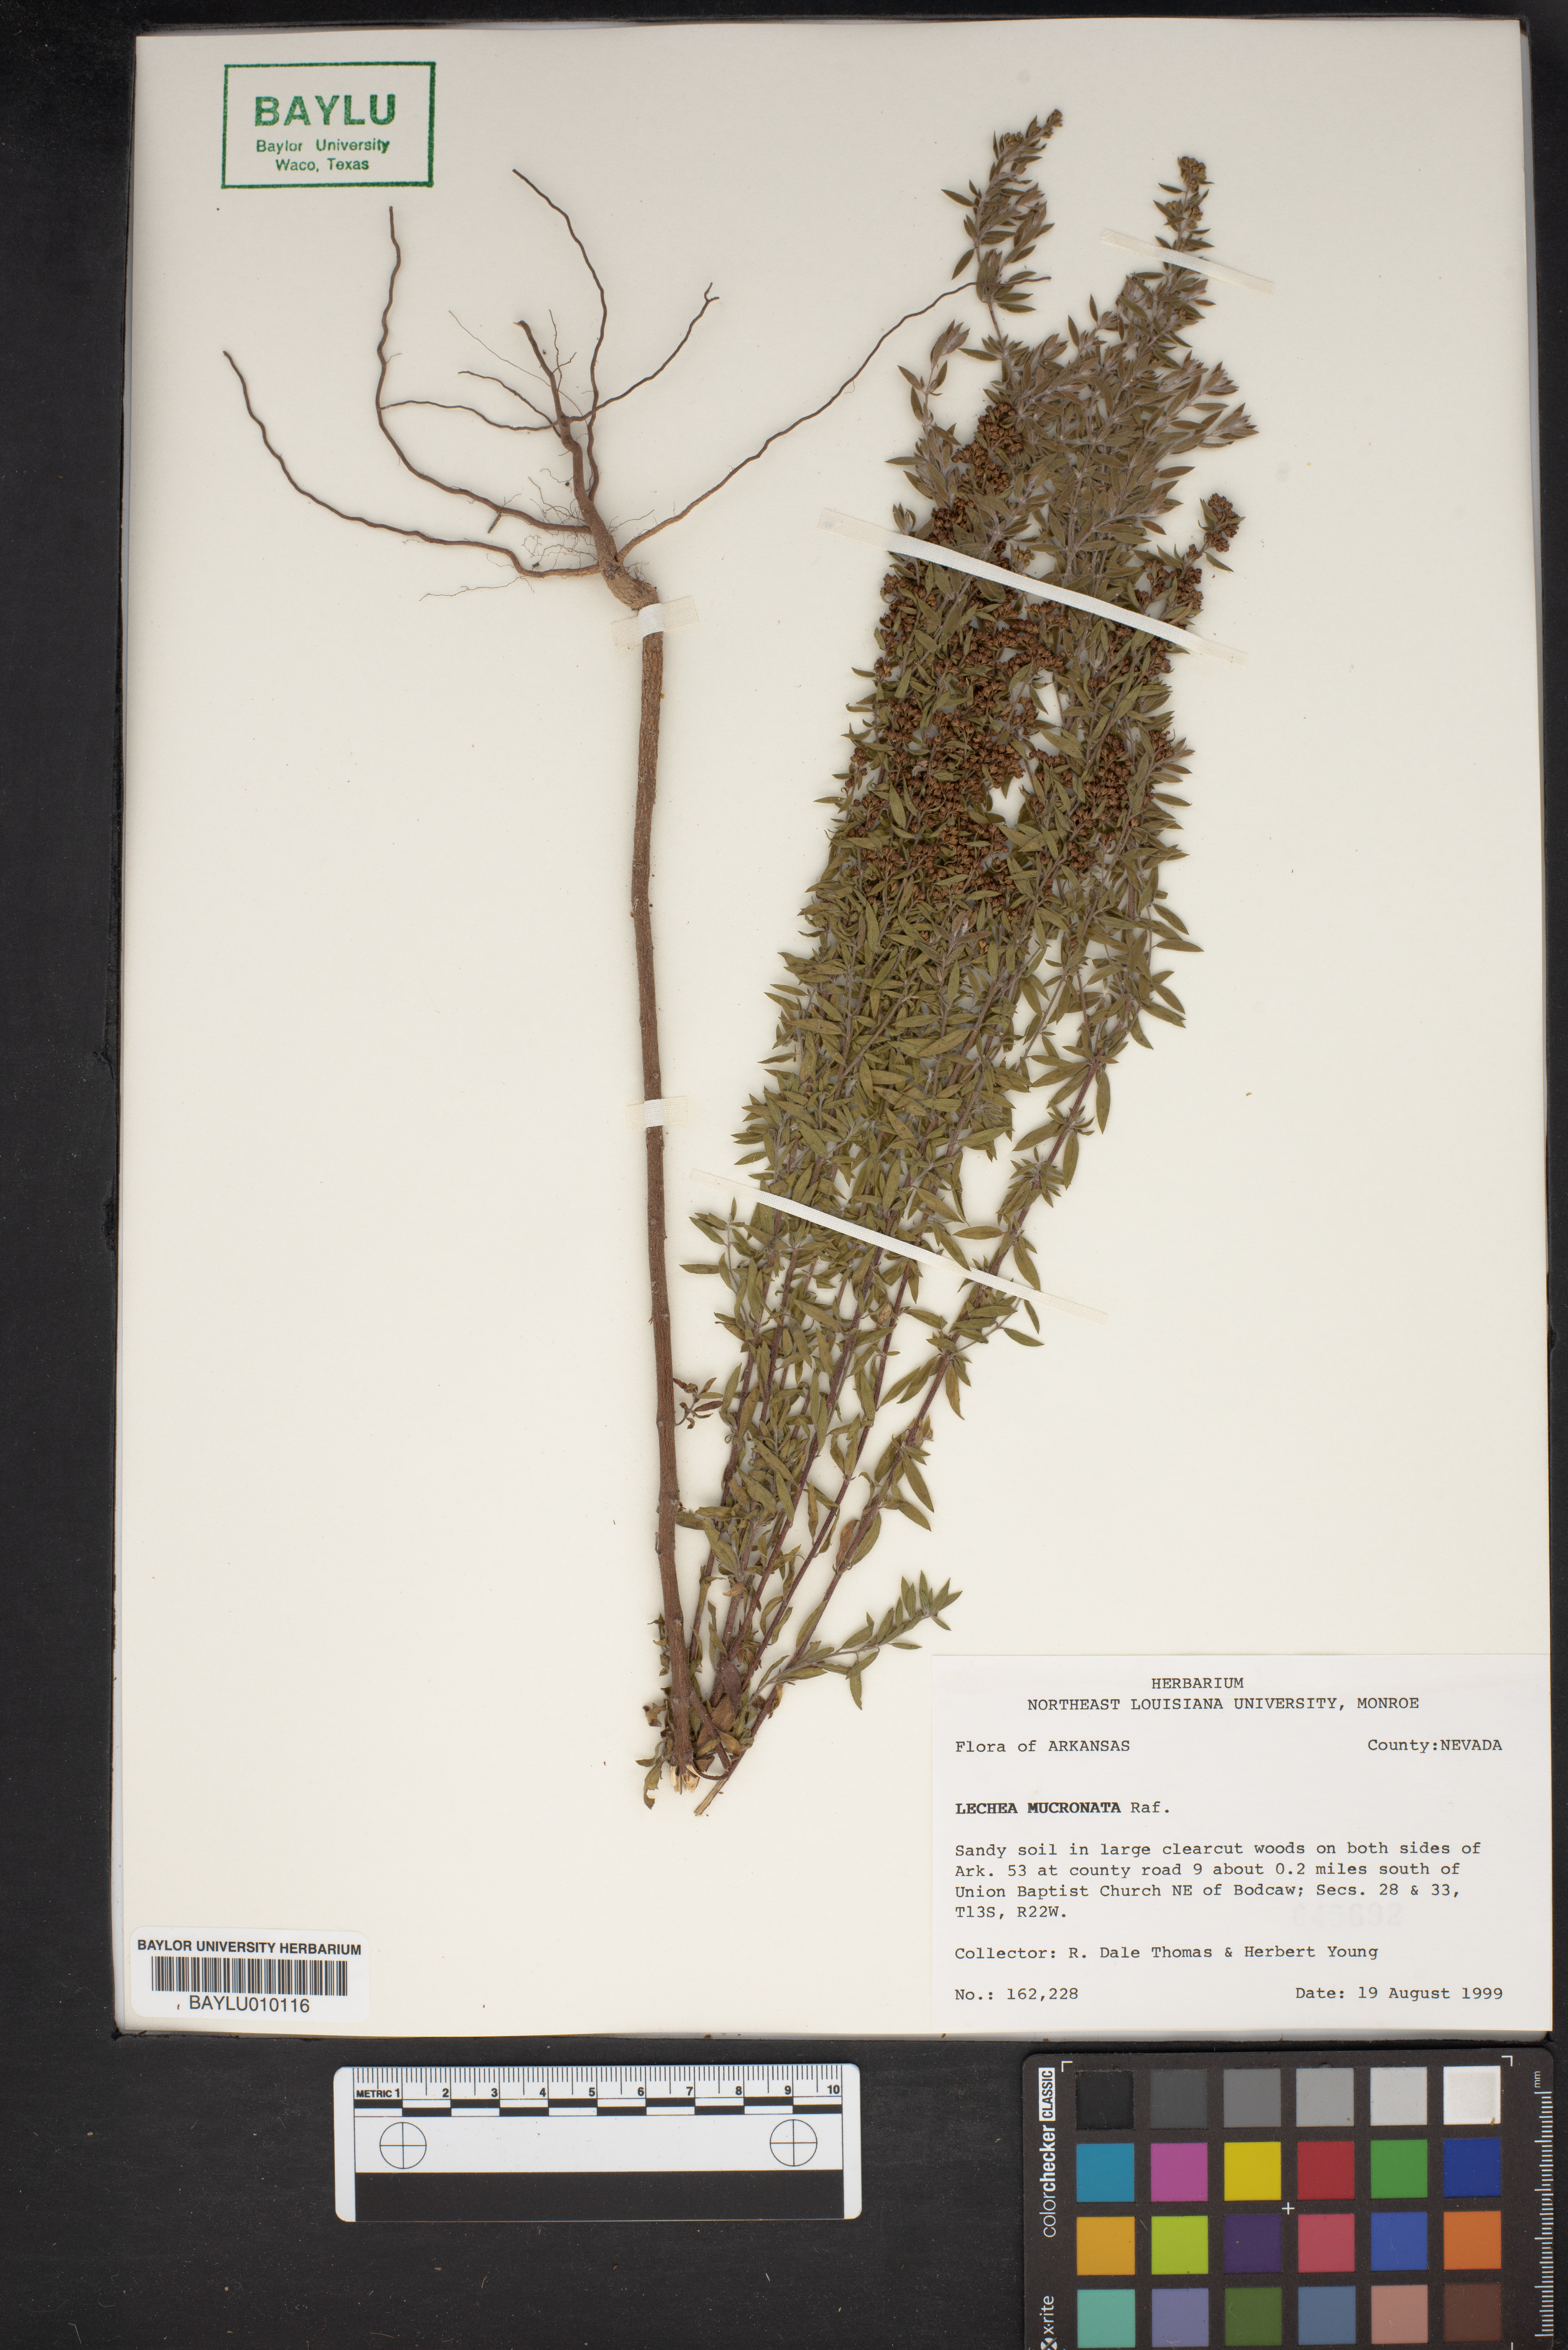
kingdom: Plantae
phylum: Tracheophyta
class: Magnoliopsida
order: Malvales
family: Cistaceae
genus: Lechea
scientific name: Lechea mucronata
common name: Hairy pinweed
